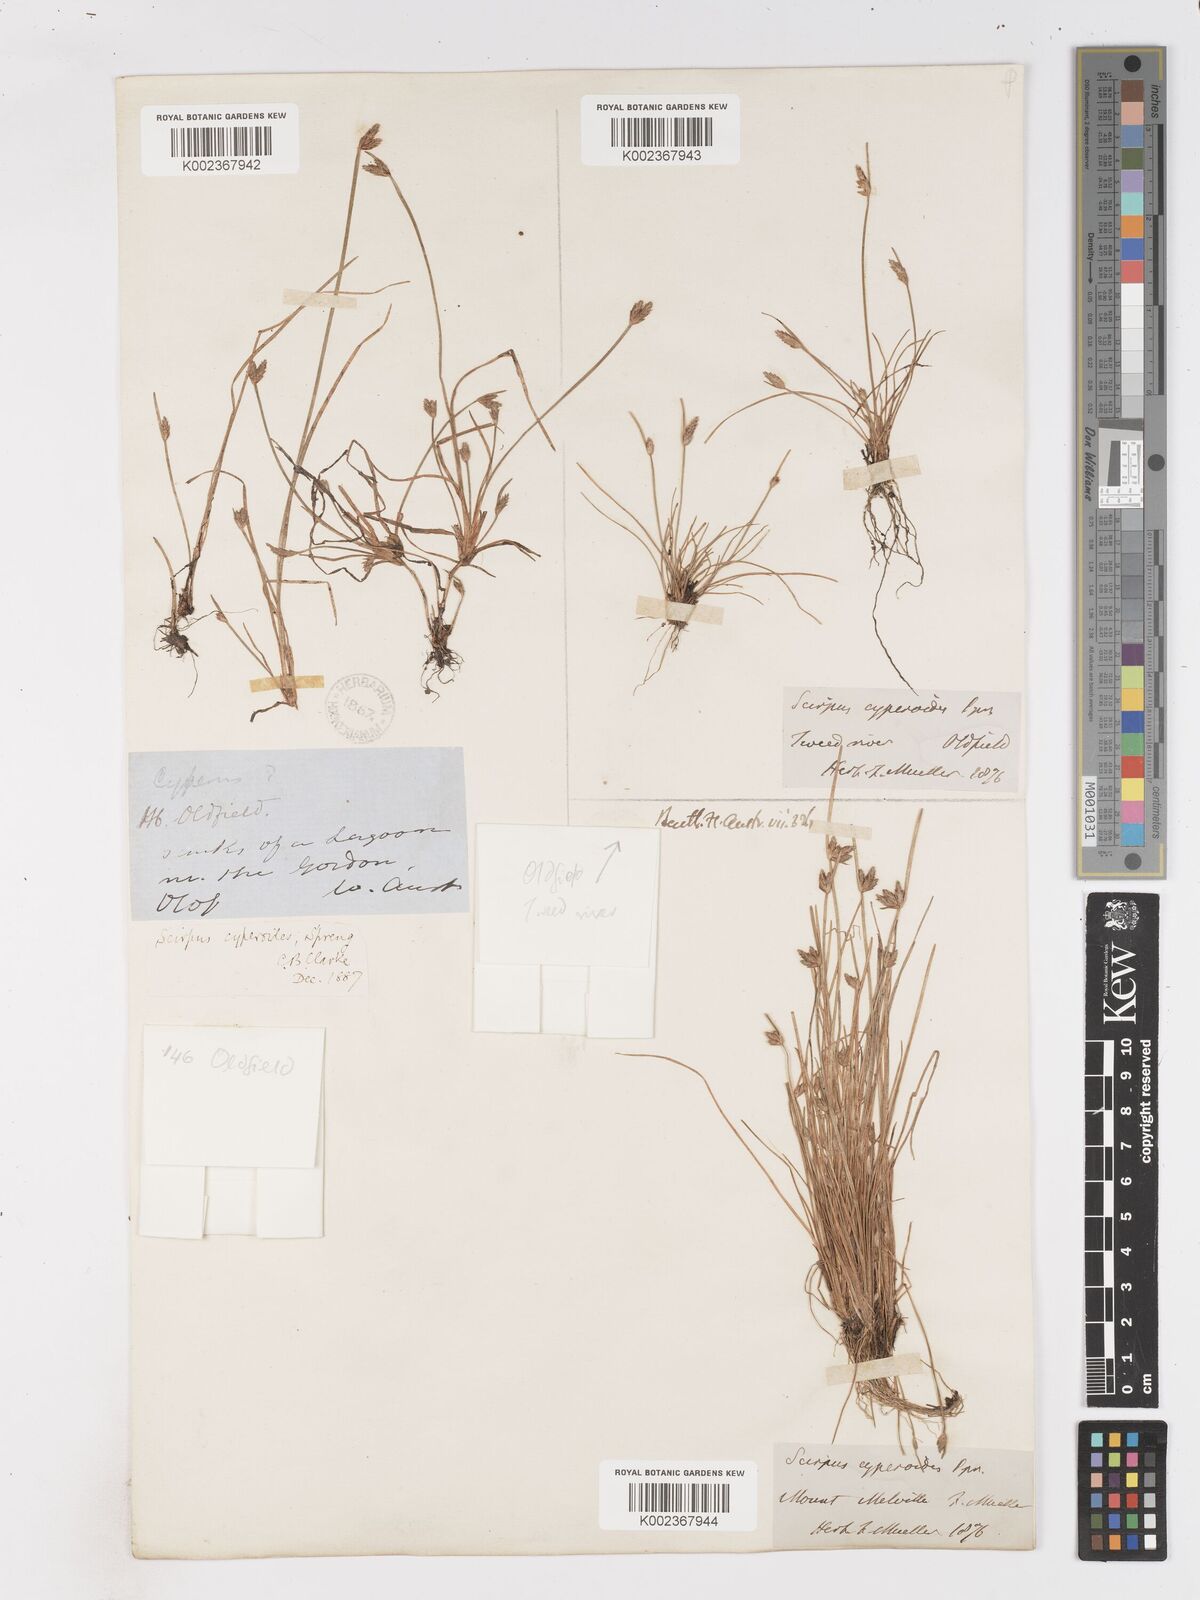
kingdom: Plantae
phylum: Tracheophyta
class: Liliopsida
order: Poales
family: Cyperaceae
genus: Isolepis
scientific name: Isolepis cyperoides
